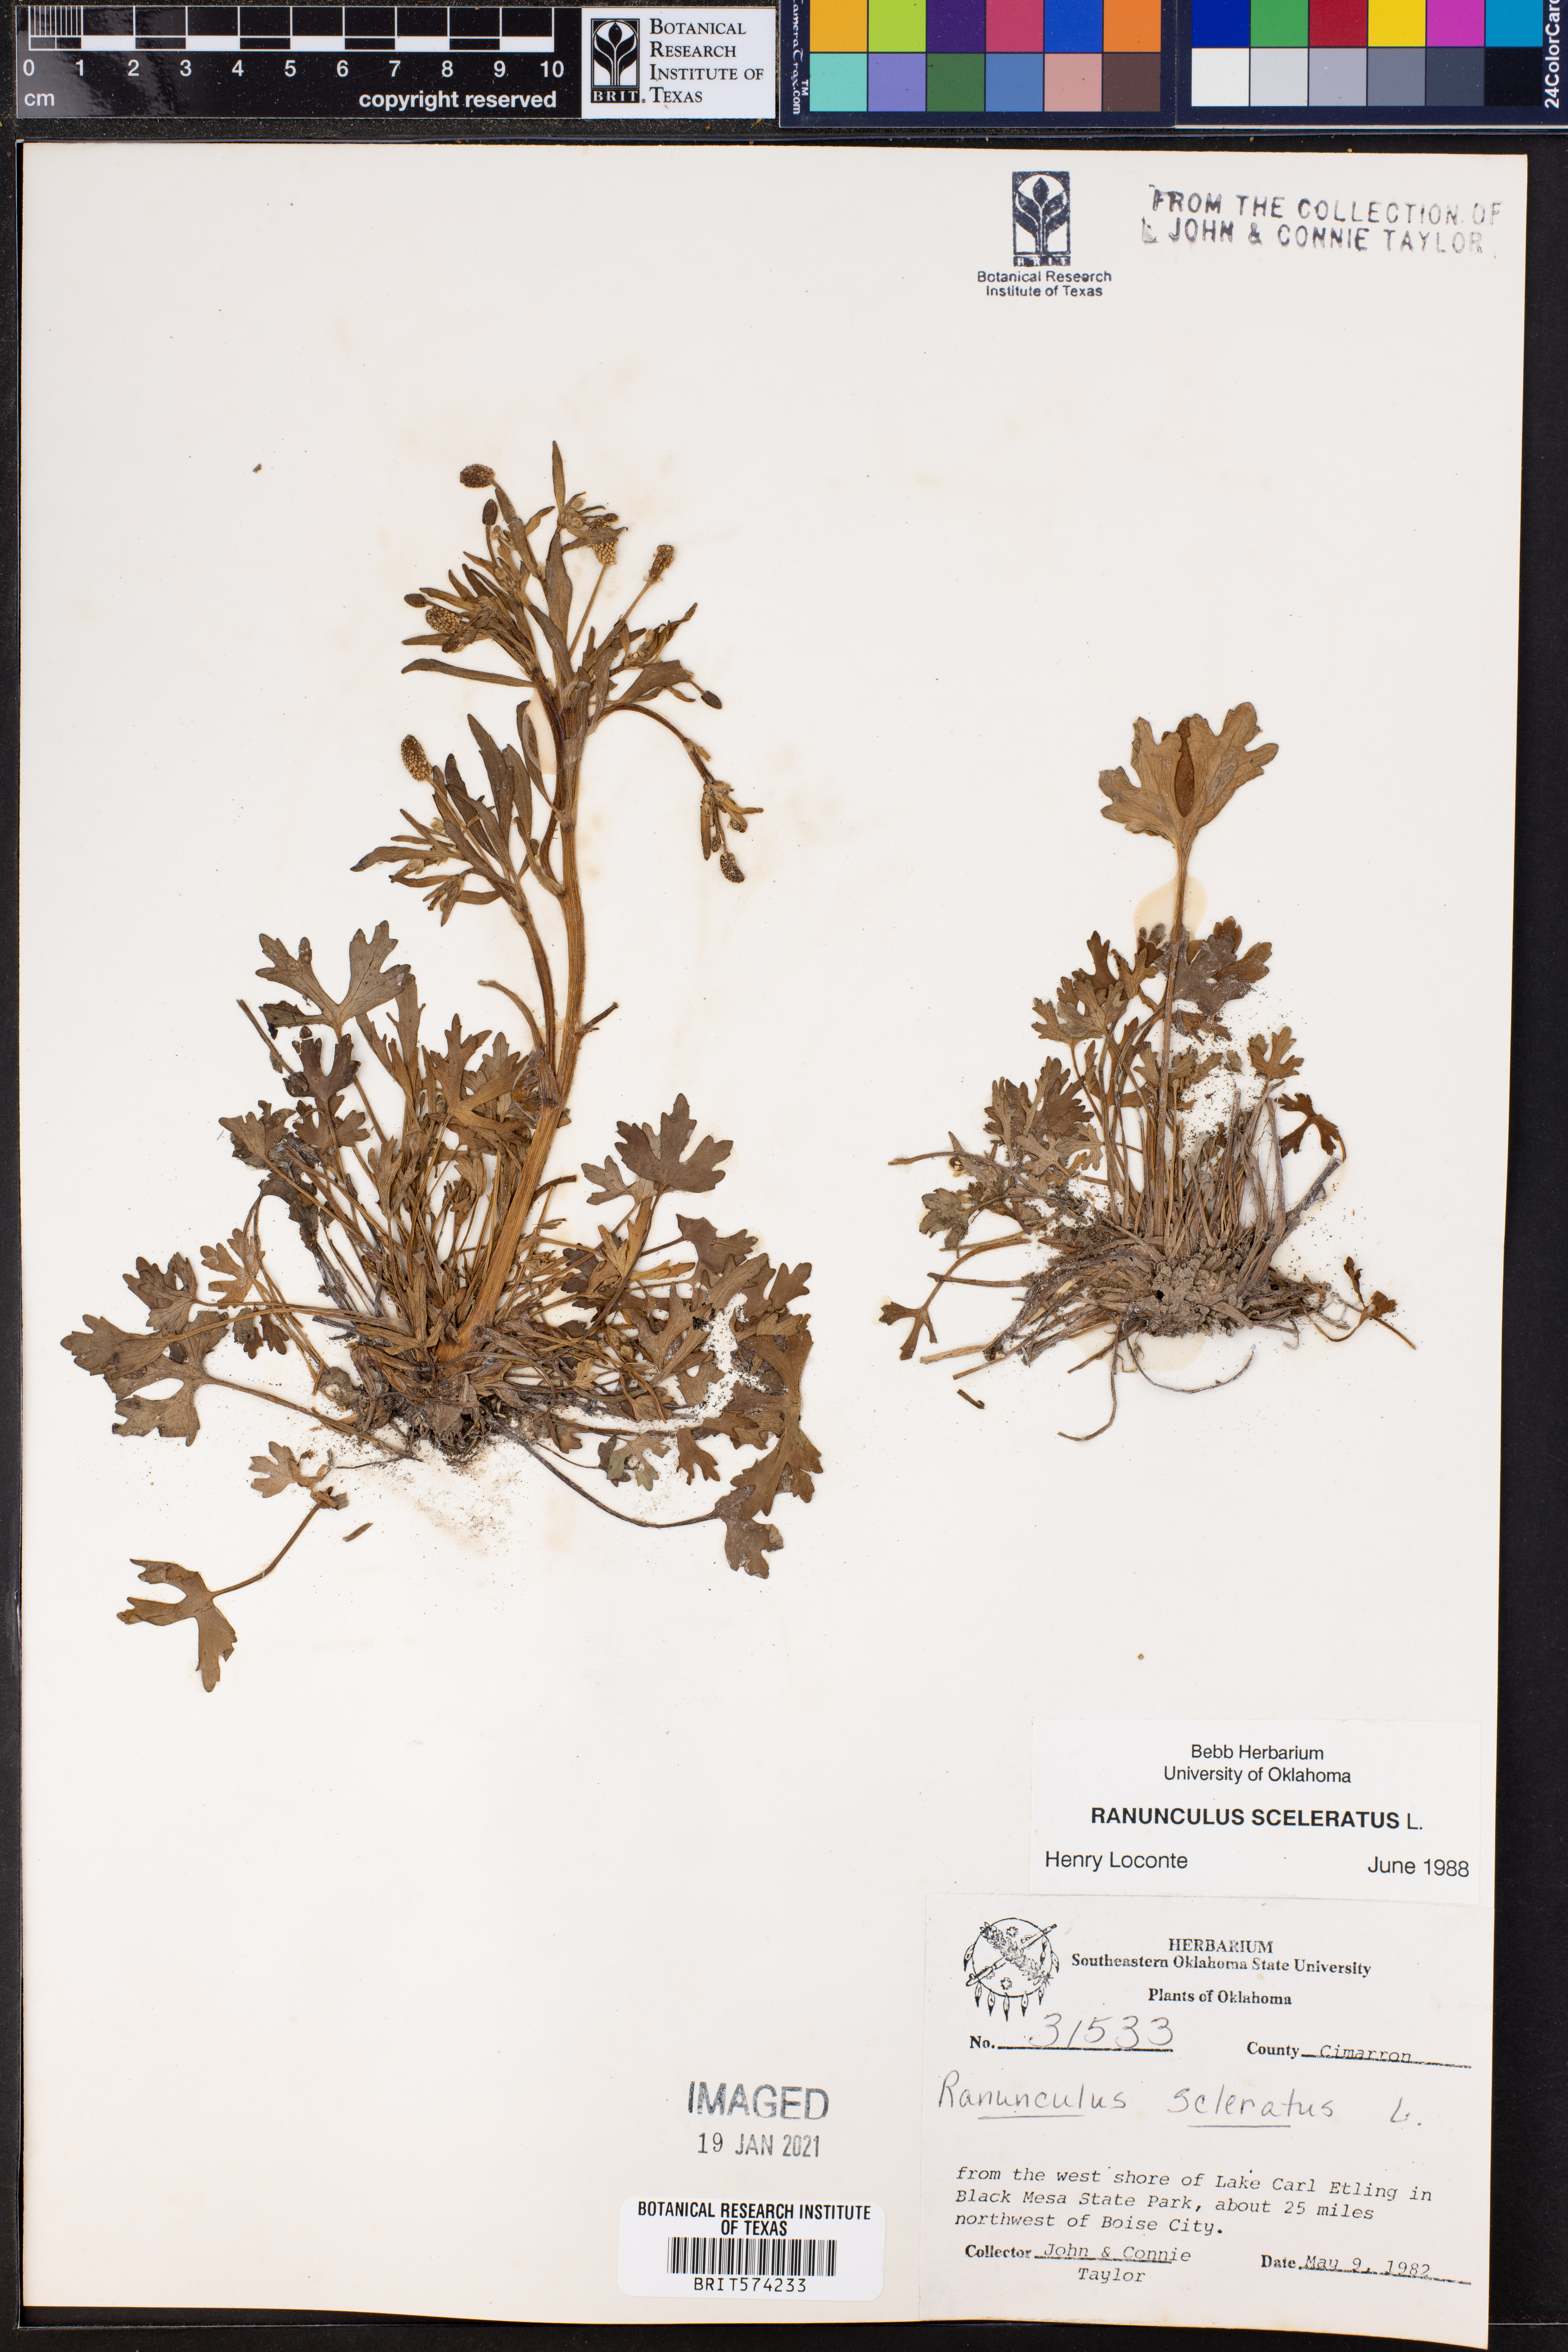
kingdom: Plantae
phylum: Tracheophyta
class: Magnoliopsida
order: Ranunculales
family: Ranunculaceae
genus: Ranunculus
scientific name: Ranunculus sceleratus
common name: Celery-leaved buttercup
